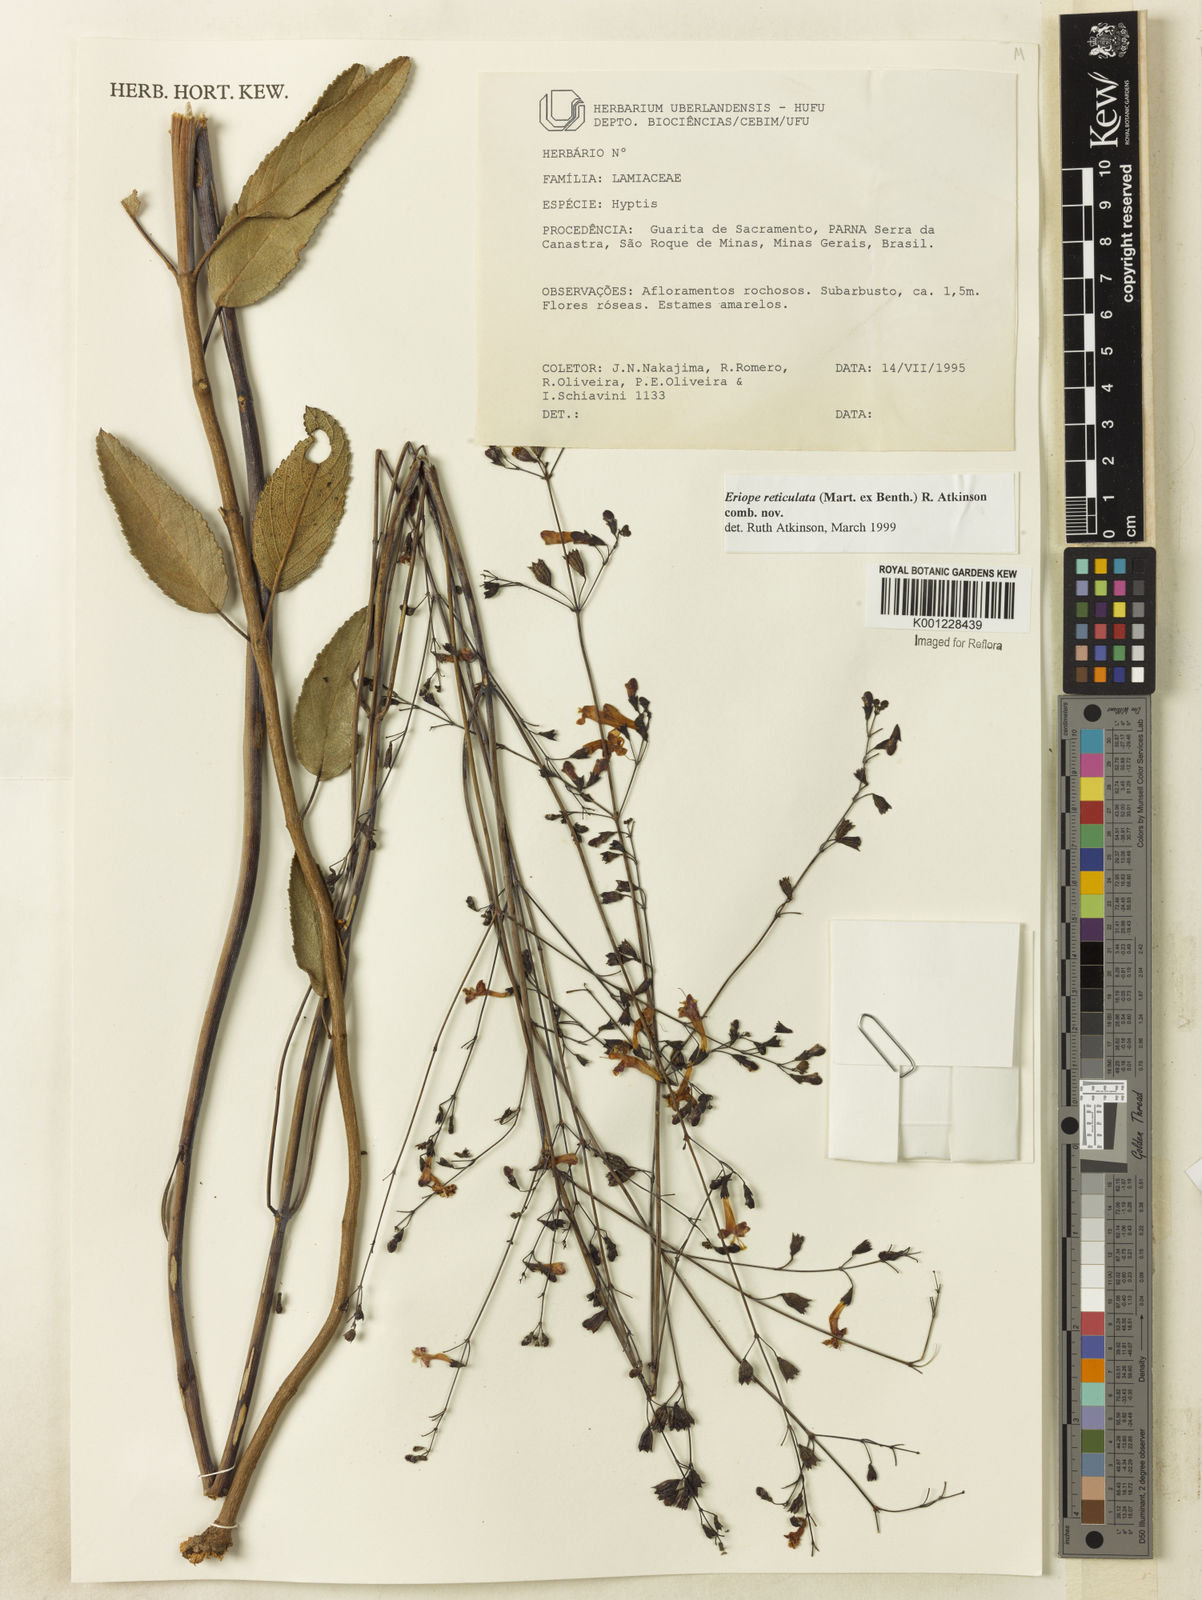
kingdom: Plantae
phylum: Tracheophyta
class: Magnoliopsida
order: Lamiales
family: Lamiaceae
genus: Hypenia
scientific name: Hypenia reticulata
